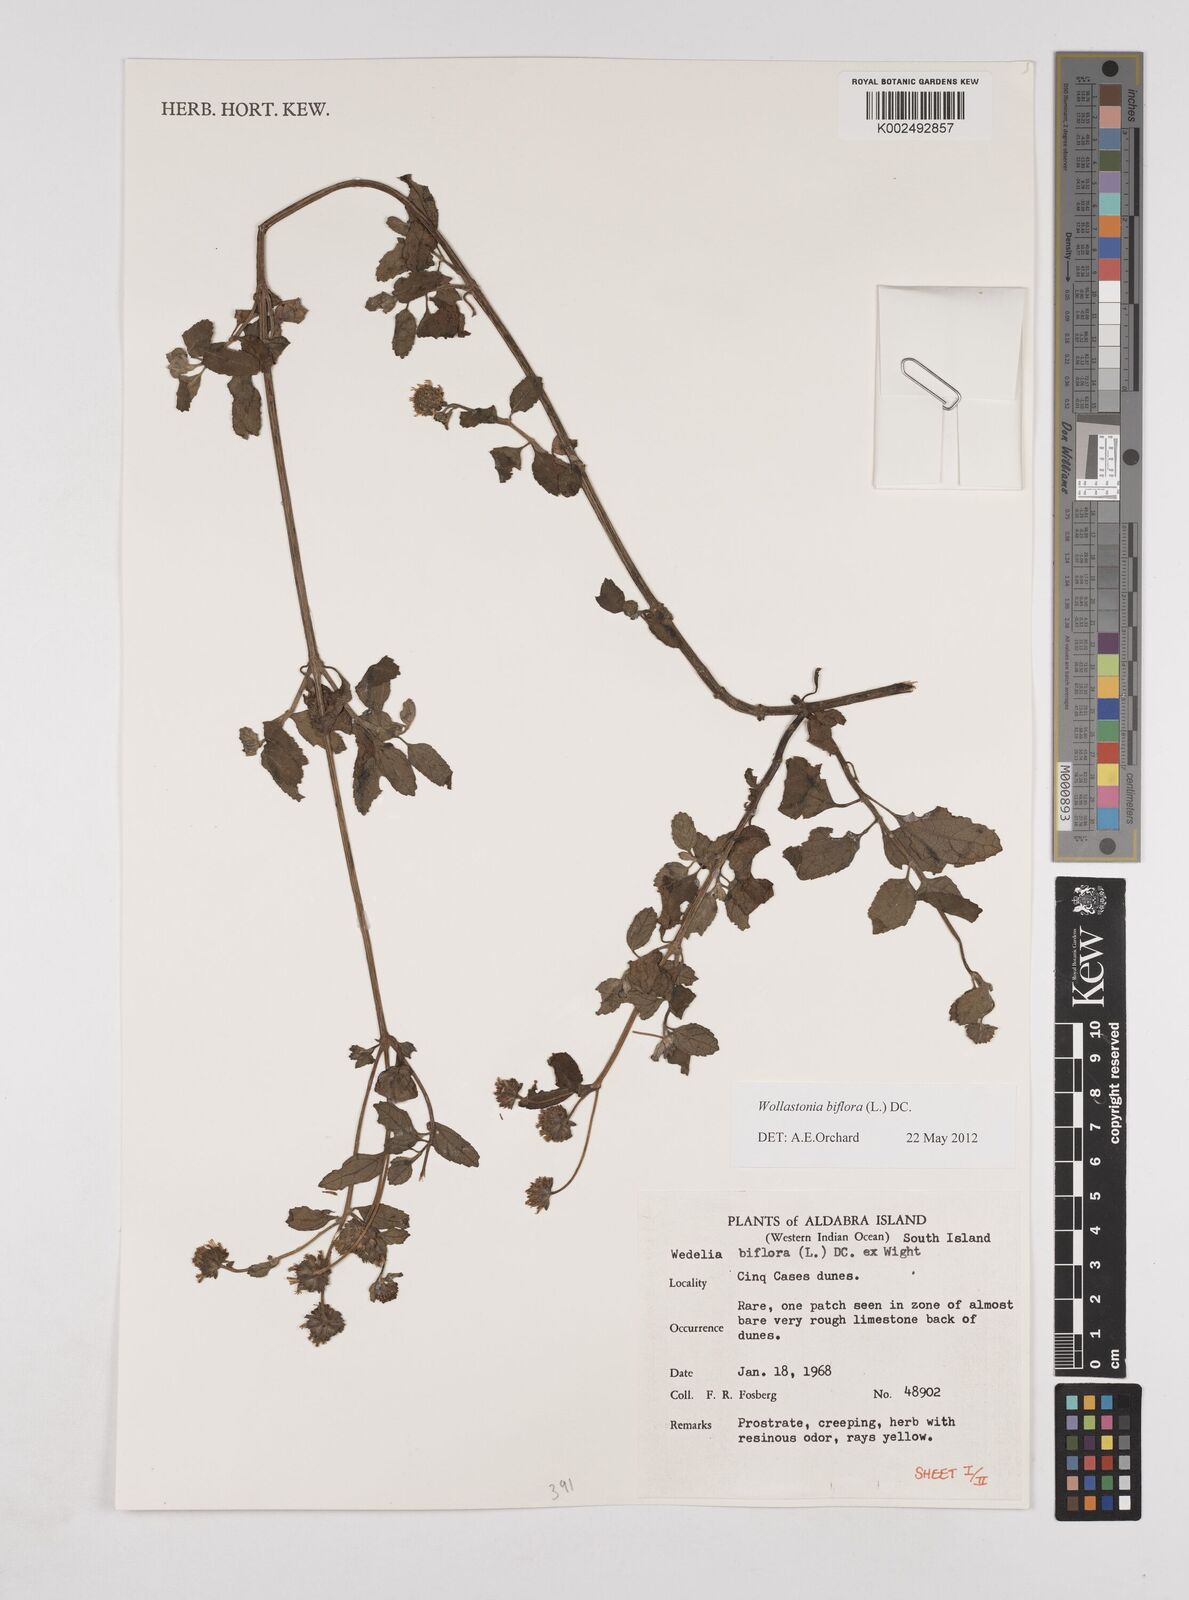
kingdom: Plantae
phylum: Tracheophyta
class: Magnoliopsida
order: Asterales
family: Asteraceae
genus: Wollastonia
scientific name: Wollastonia biflora
